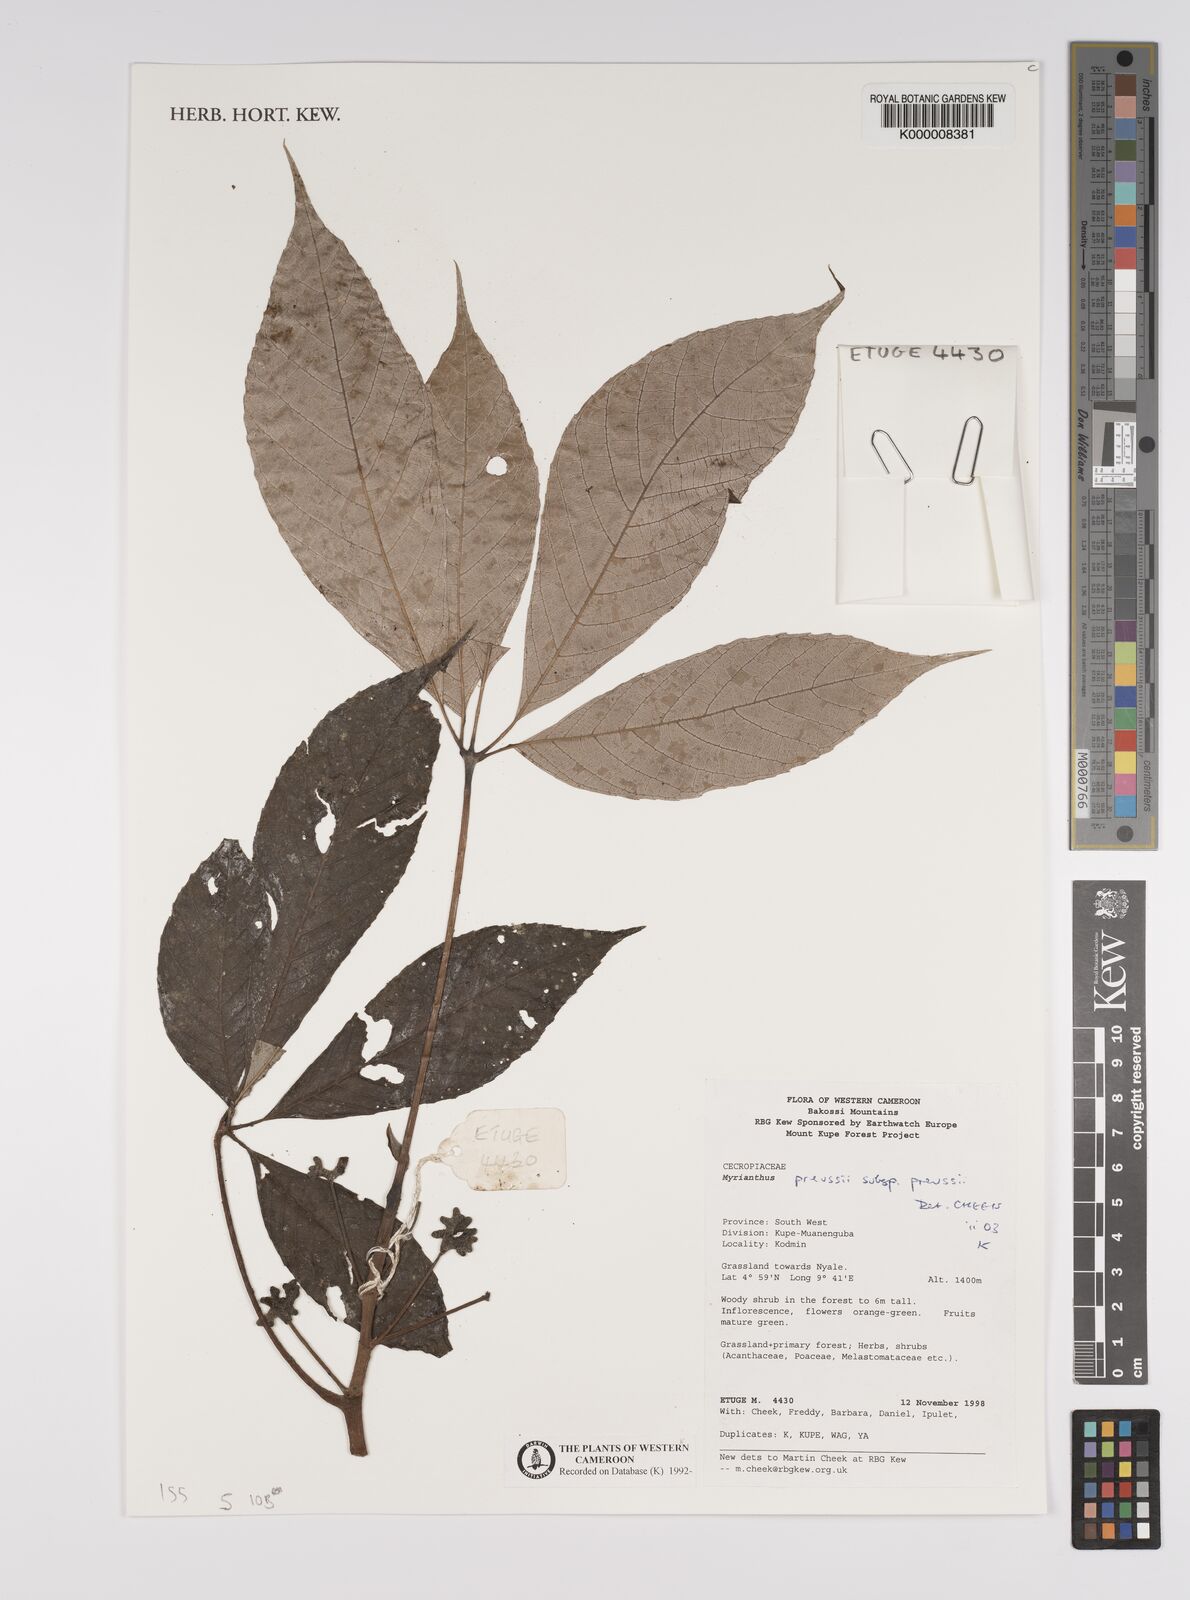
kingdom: Plantae
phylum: Tracheophyta
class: Magnoliopsida
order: Rosales
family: Urticaceae
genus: Myrianthus
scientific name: Myrianthus preussii
